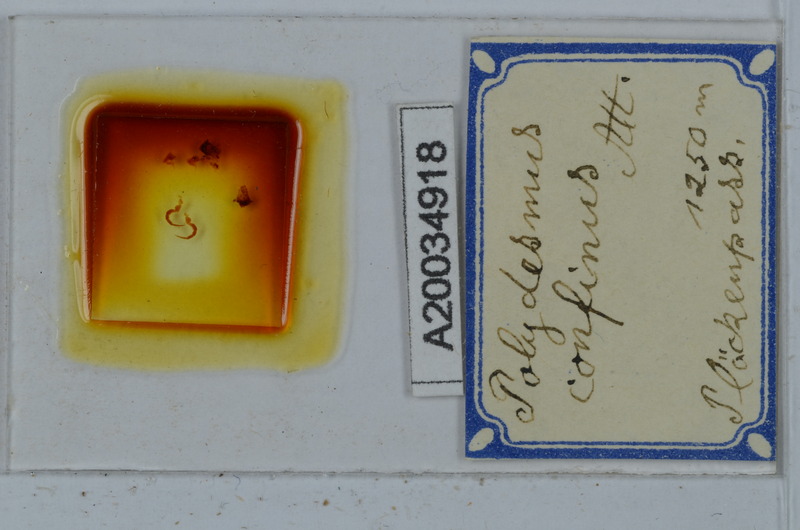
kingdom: Animalia
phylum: Arthropoda
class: Diplopoda
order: Polydesmida
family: Polydesmidae
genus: Polydesmus
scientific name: Polydesmus rangifer
